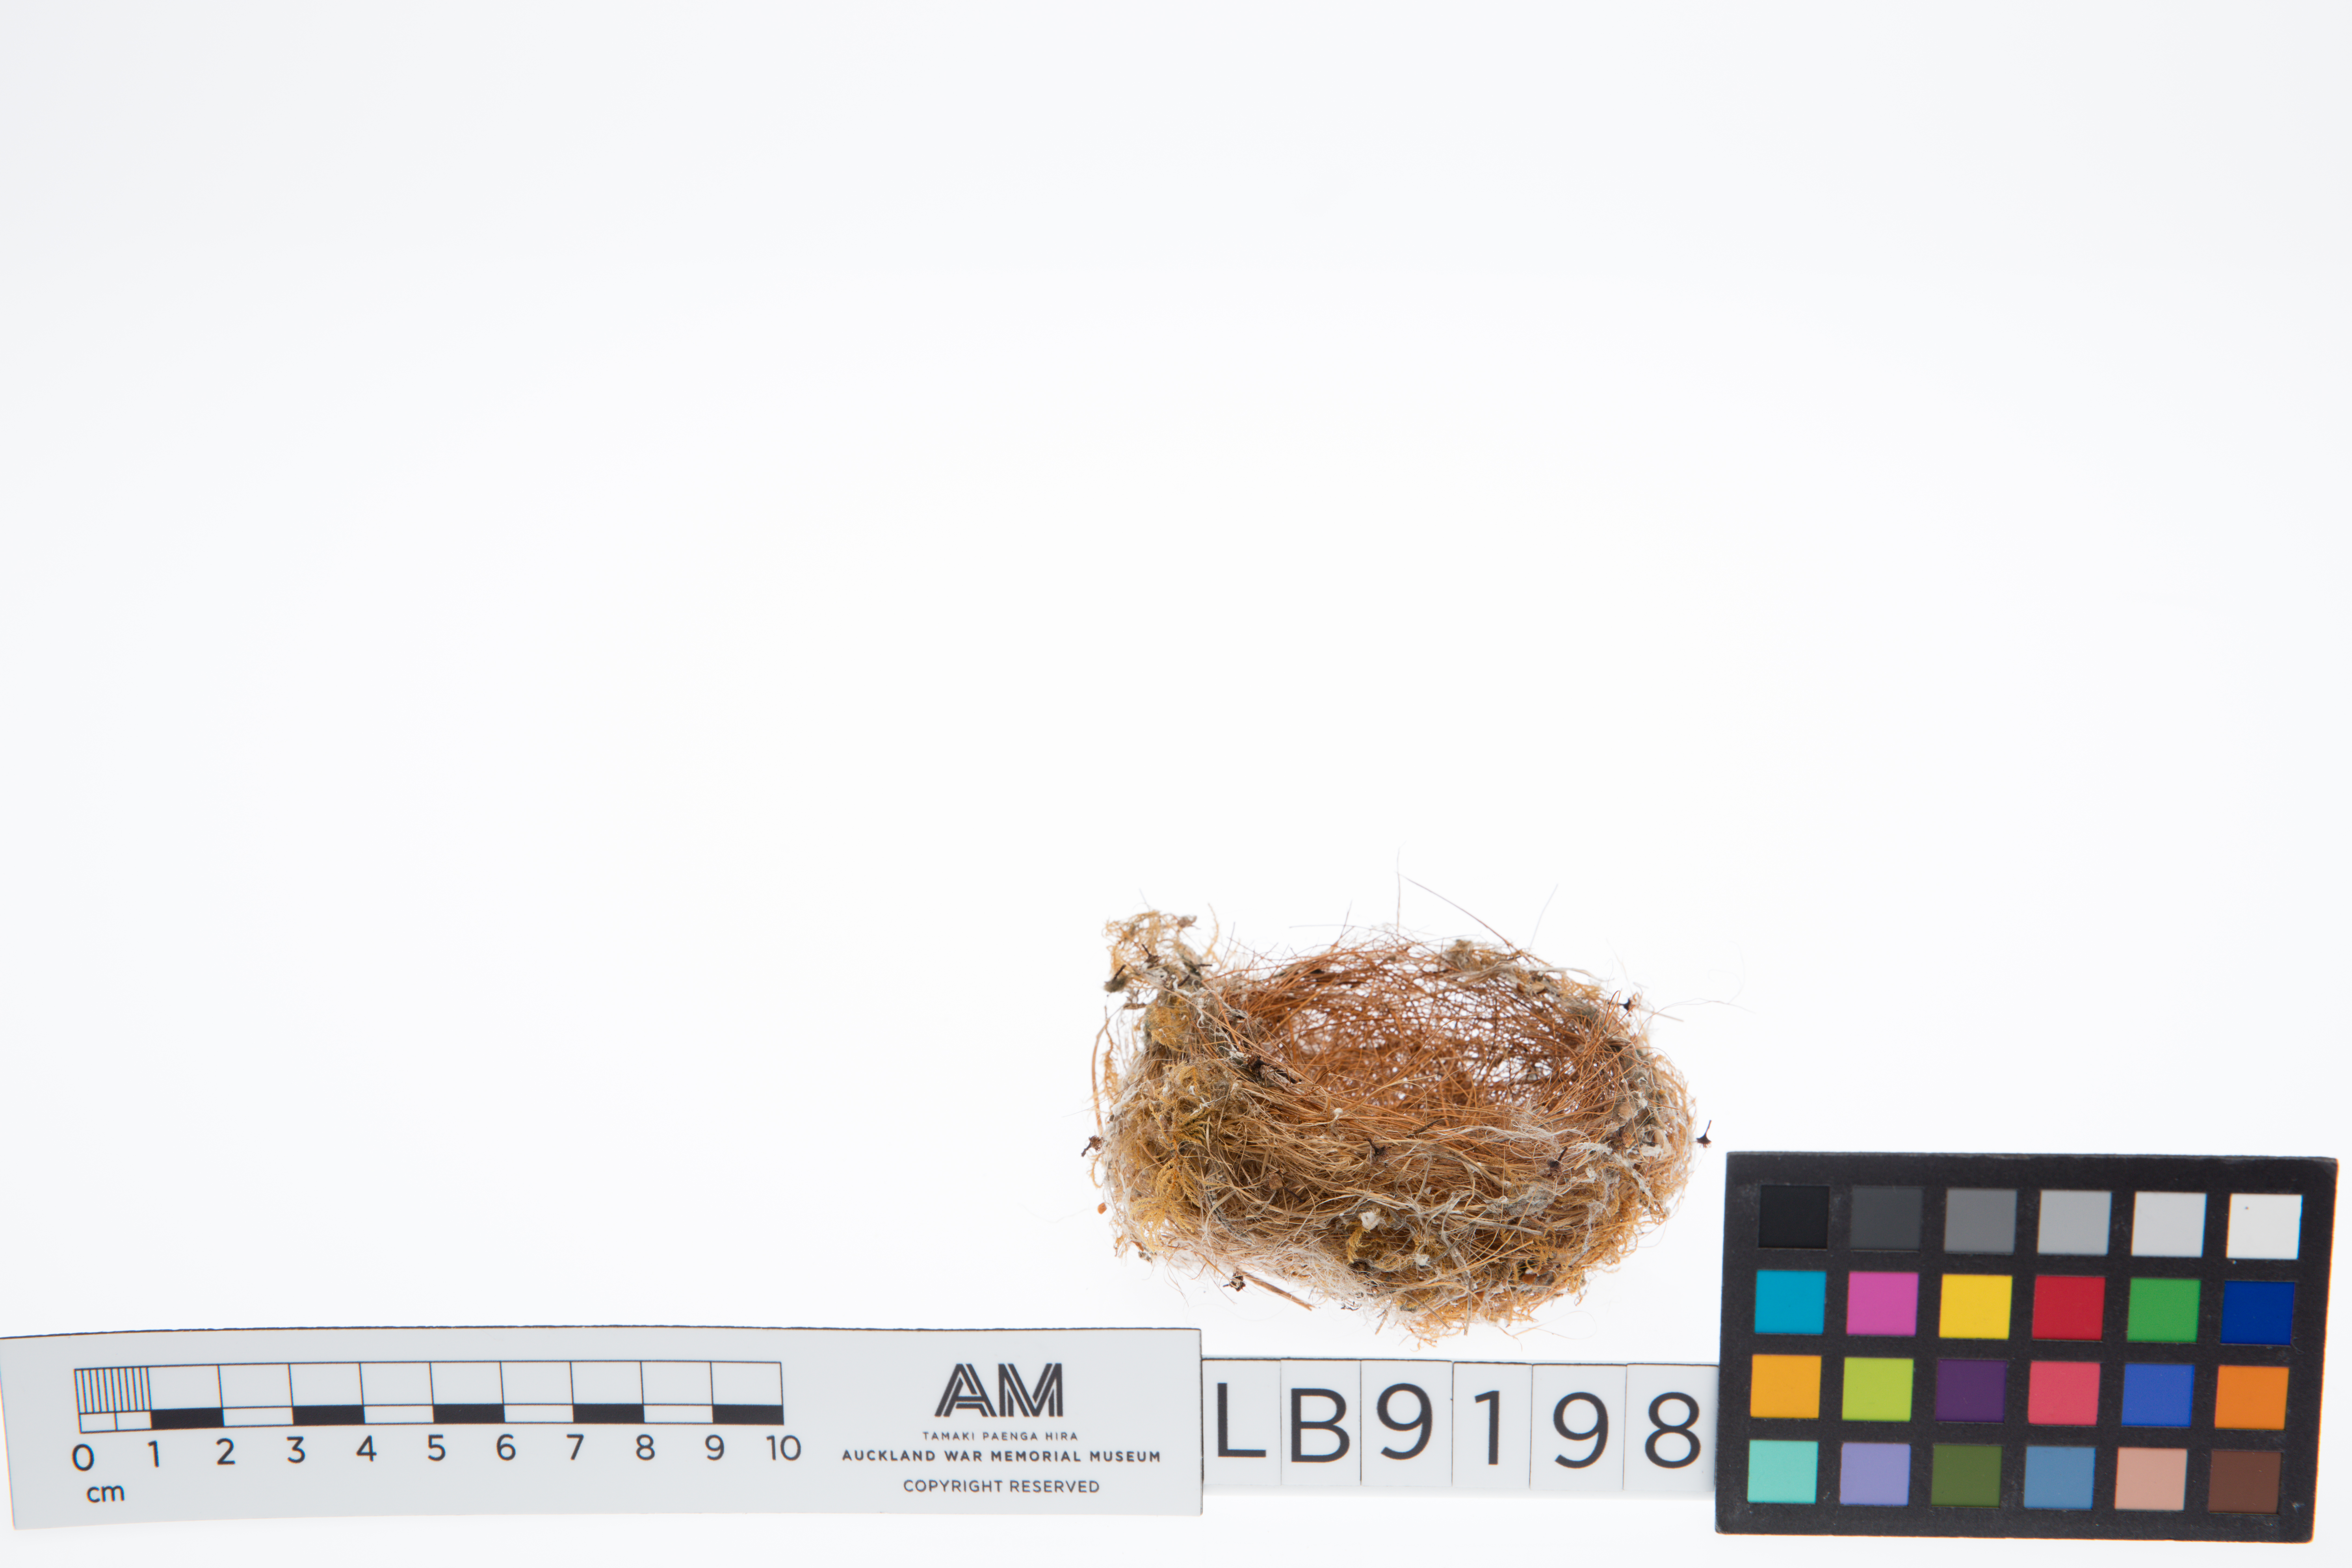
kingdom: Animalia
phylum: Chordata
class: Aves
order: Passeriformes
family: Fringillidae
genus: Carduelis
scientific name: Carduelis carduelis
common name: European goldfinch
